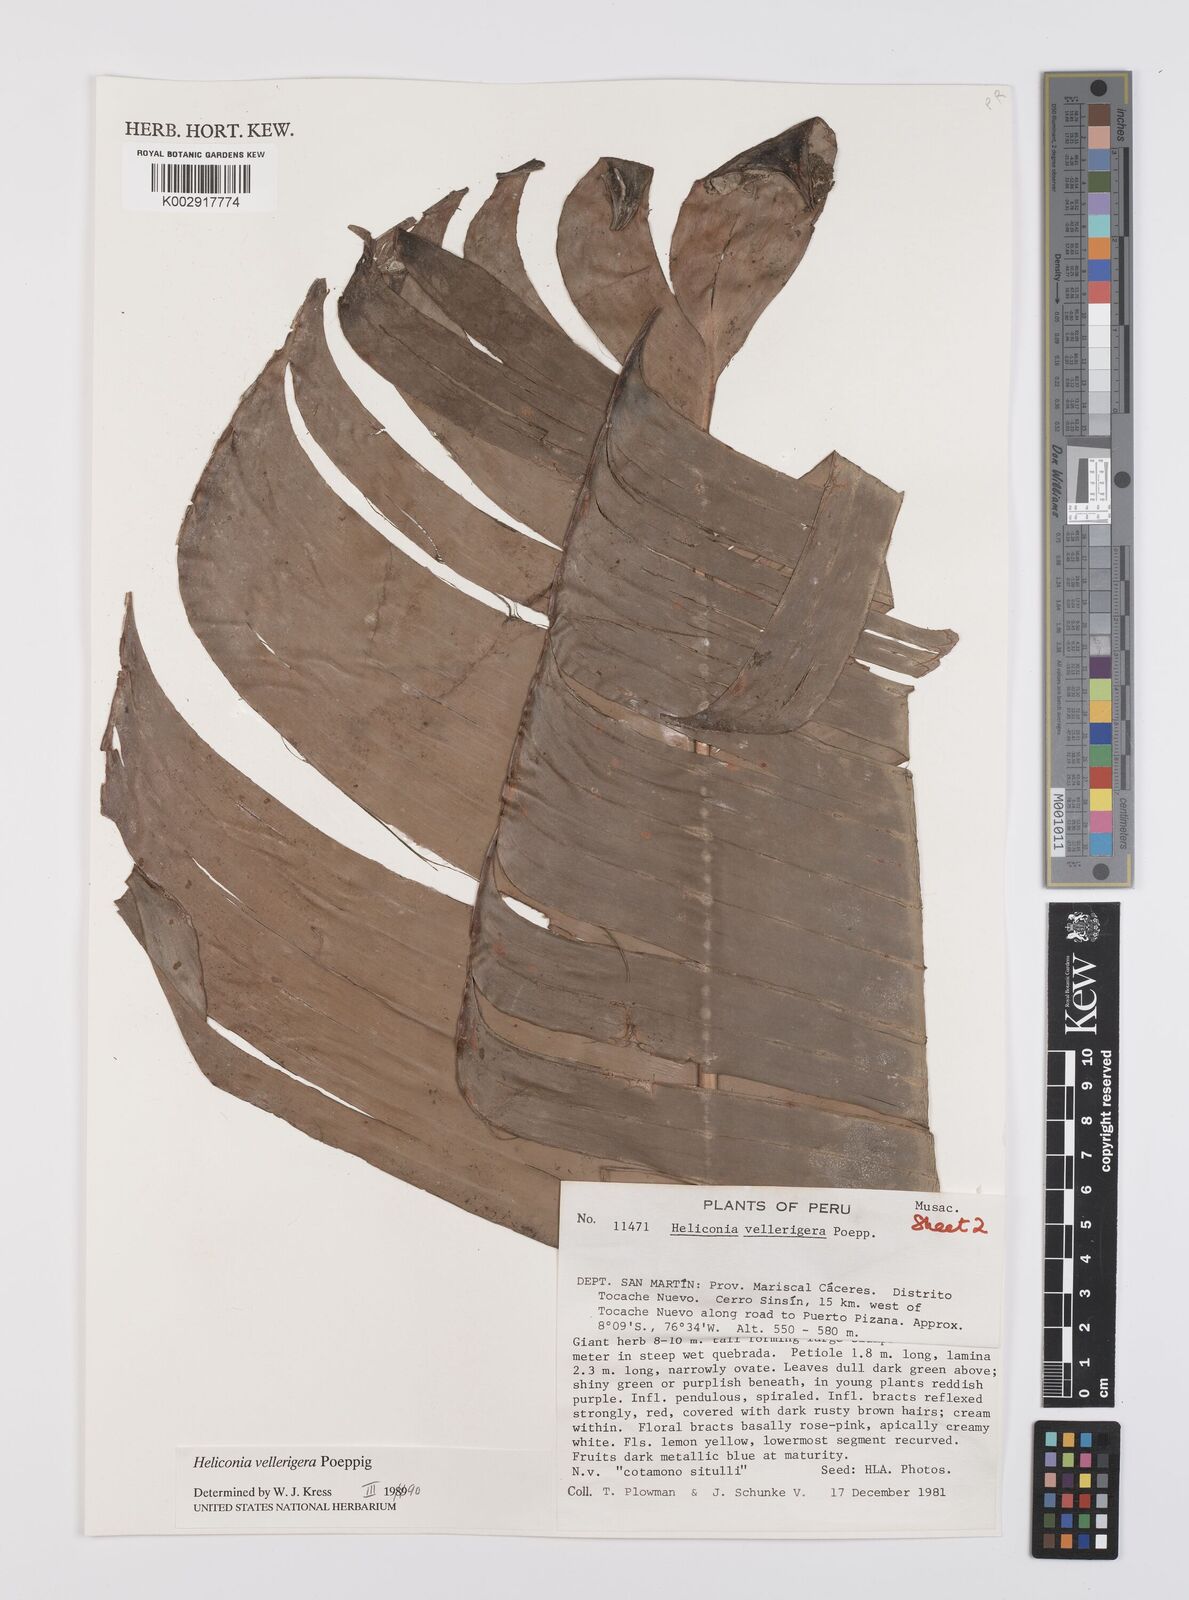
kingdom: Plantae
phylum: Tracheophyta
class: Liliopsida
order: Zingiberales
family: Heliconiaceae
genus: Heliconia
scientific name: Heliconia vellerigera
